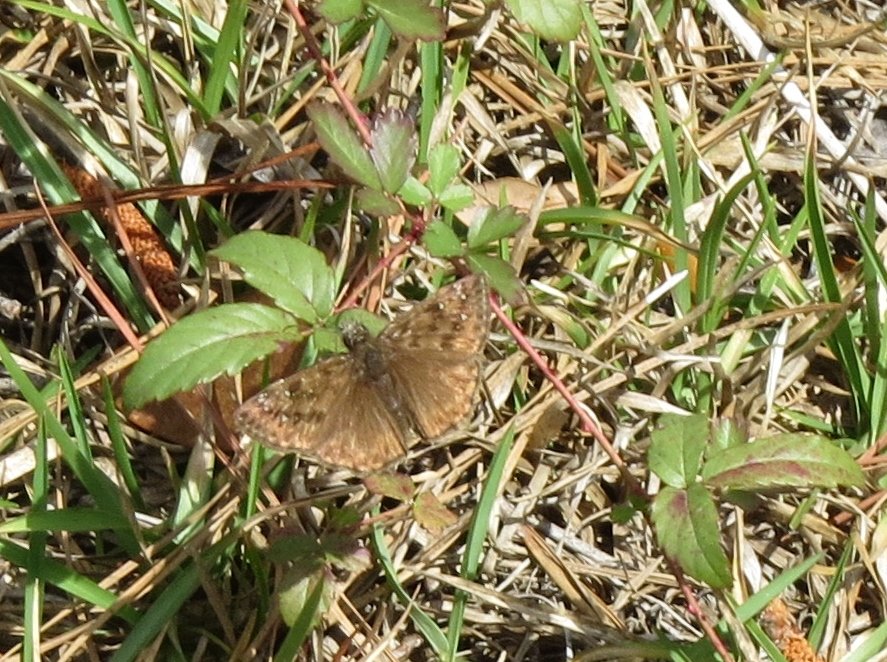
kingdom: Animalia
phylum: Arthropoda
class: Insecta
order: Lepidoptera
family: Hesperiidae
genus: Gesta
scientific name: Gesta
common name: Horace's Duskywing
